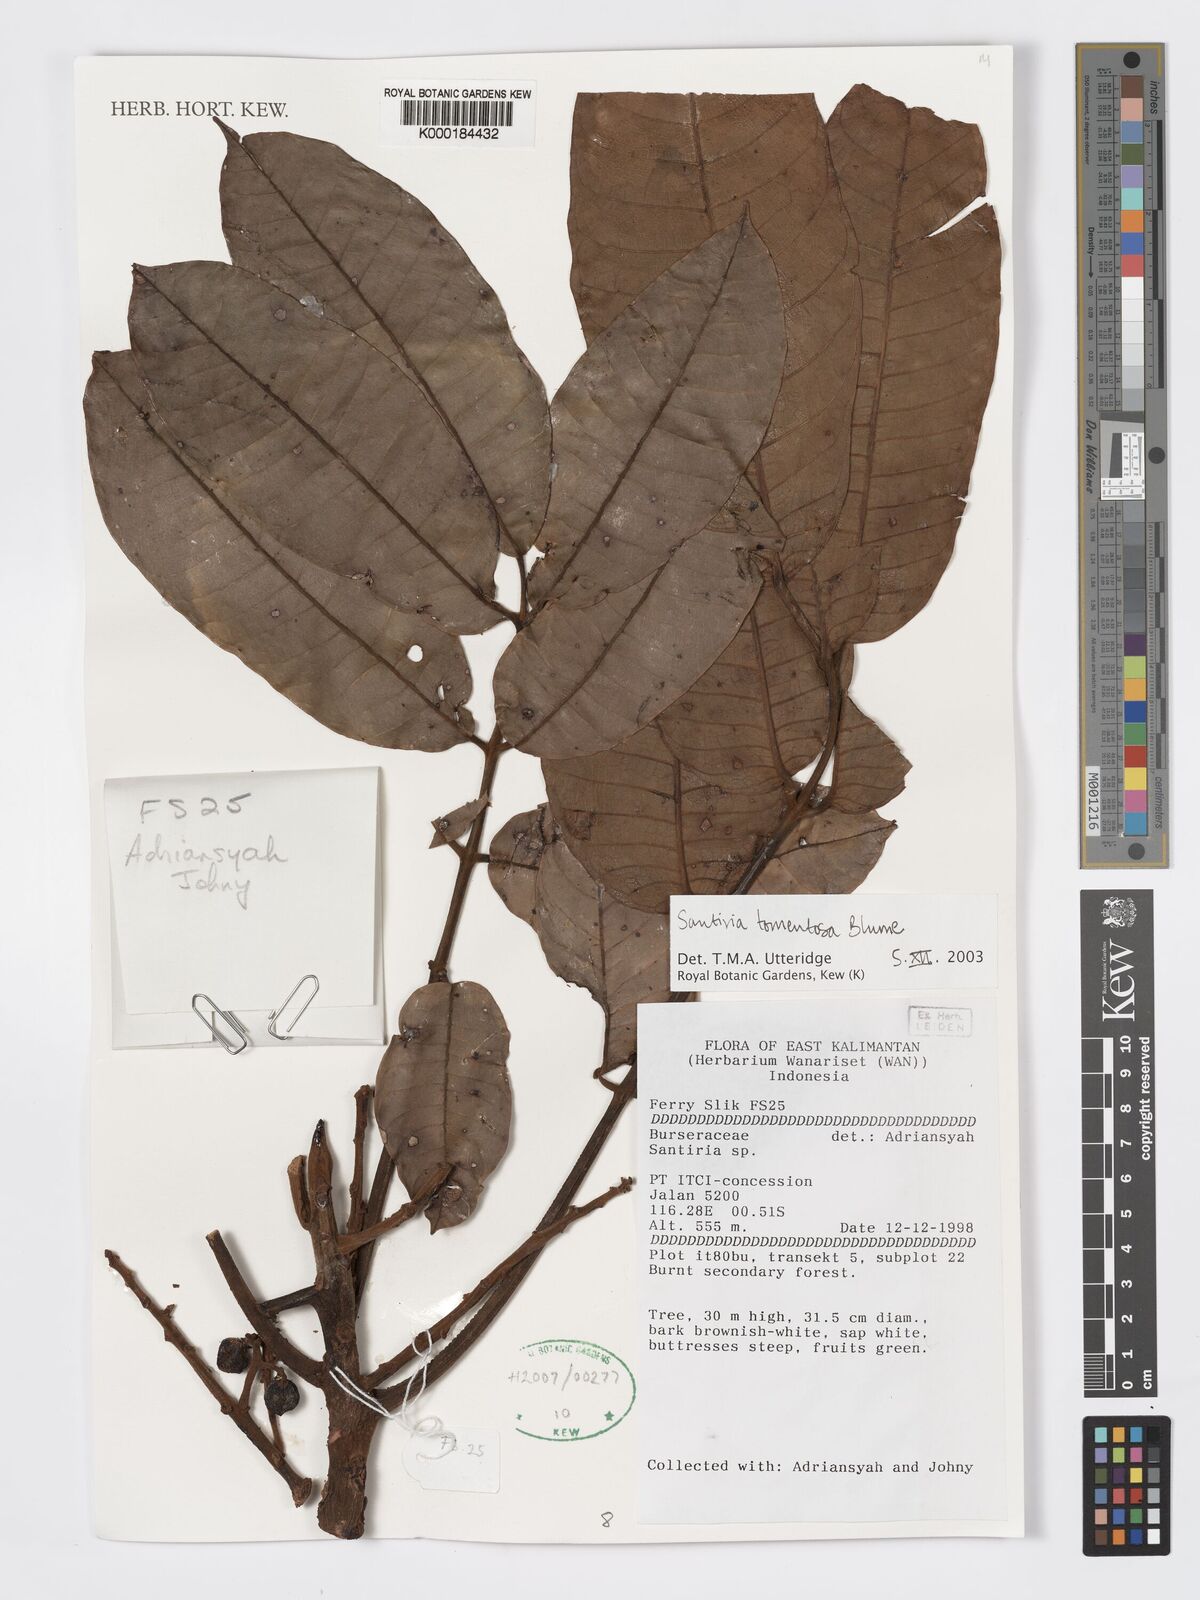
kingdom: Plantae
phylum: Tracheophyta
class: Magnoliopsida
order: Sapindales
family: Burseraceae
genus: Santiria
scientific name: Santiria tomentosa
